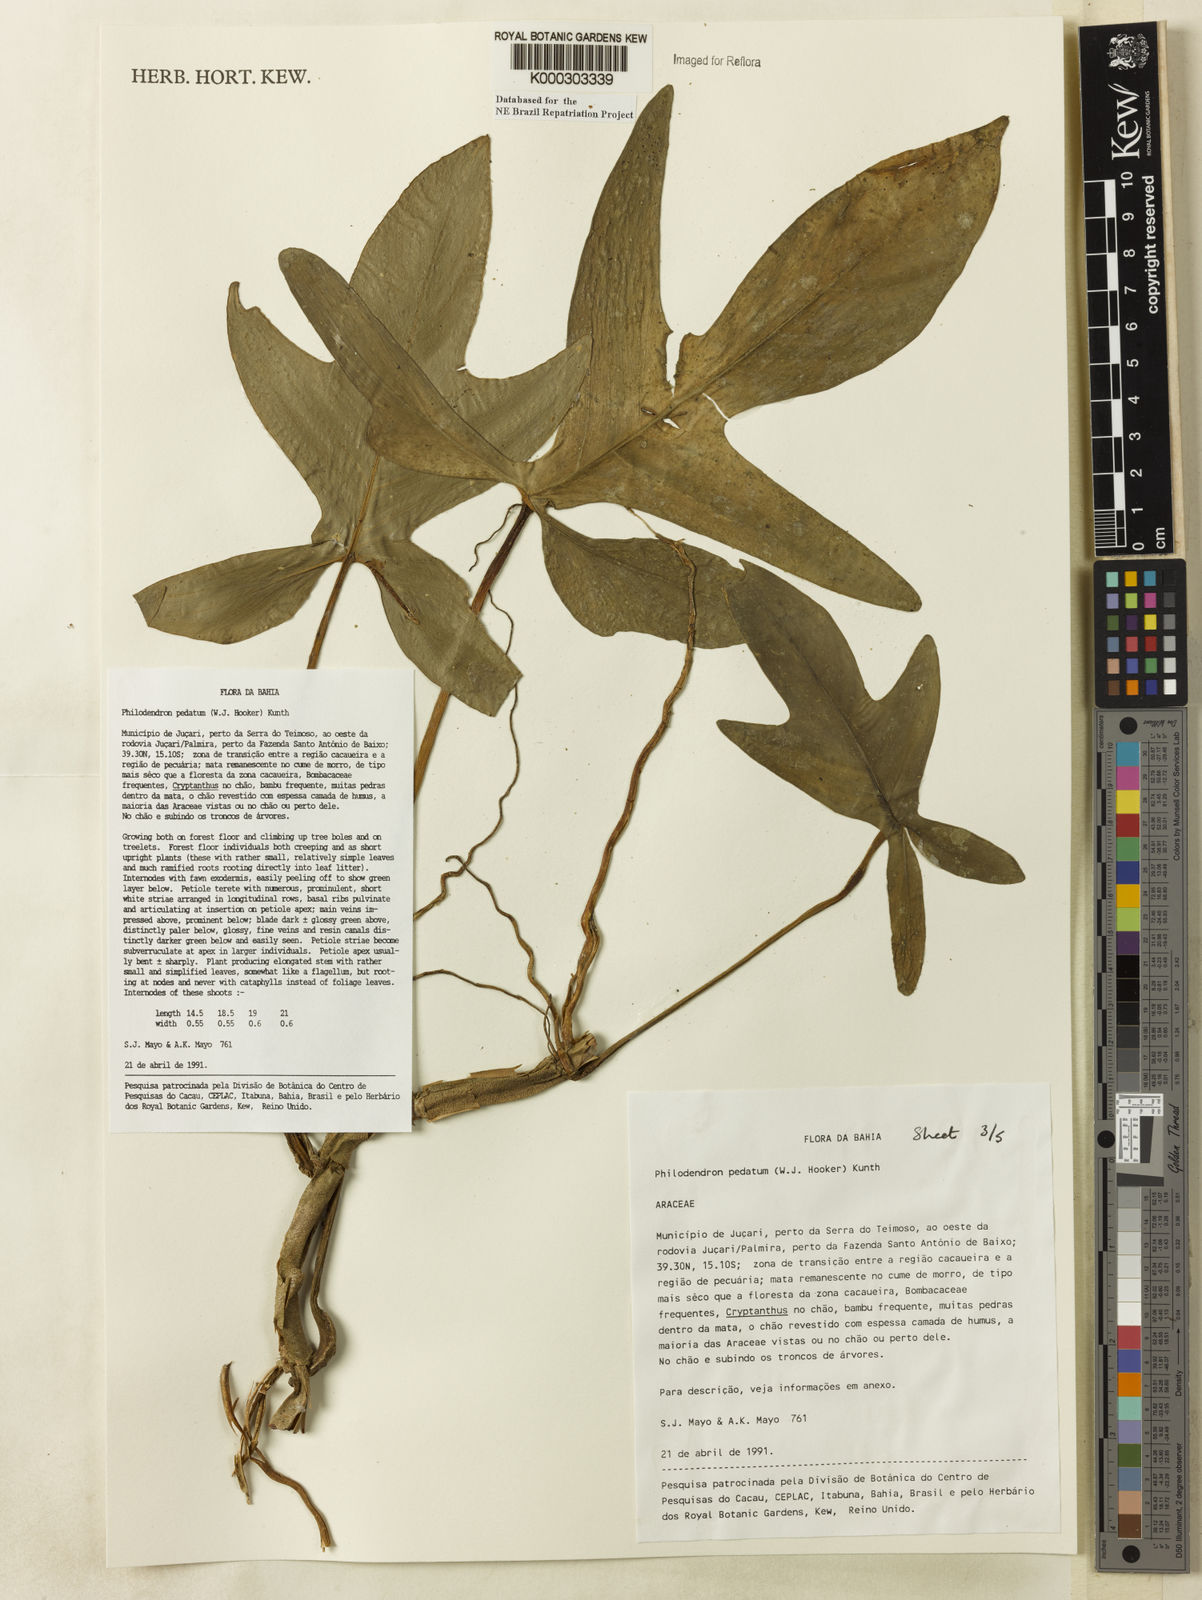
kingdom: Plantae
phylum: Tracheophyta
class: Liliopsida
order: Alismatales
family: Araceae
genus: Philodendron
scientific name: Philodendron pedatum
